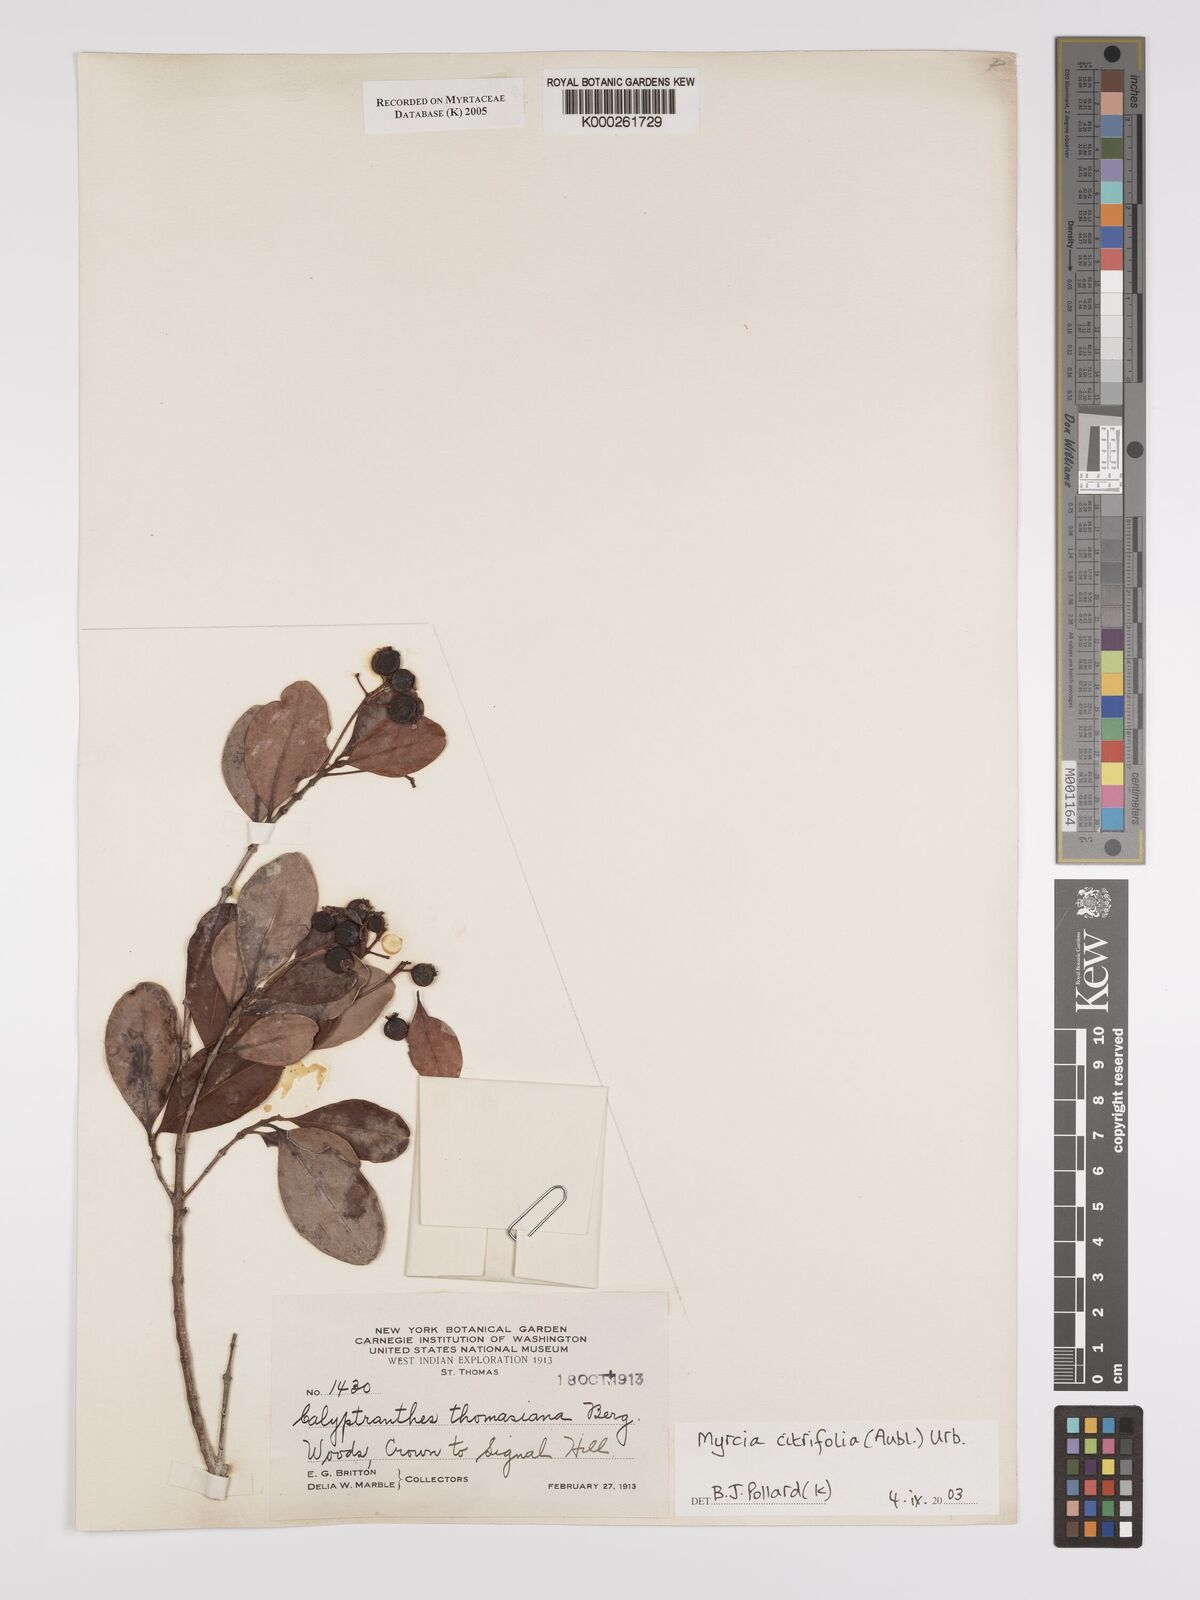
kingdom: Plantae
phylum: Tracheophyta
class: Magnoliopsida
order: Myrtales
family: Myrtaceae
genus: Myrcia
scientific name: Myrcia guianensis
